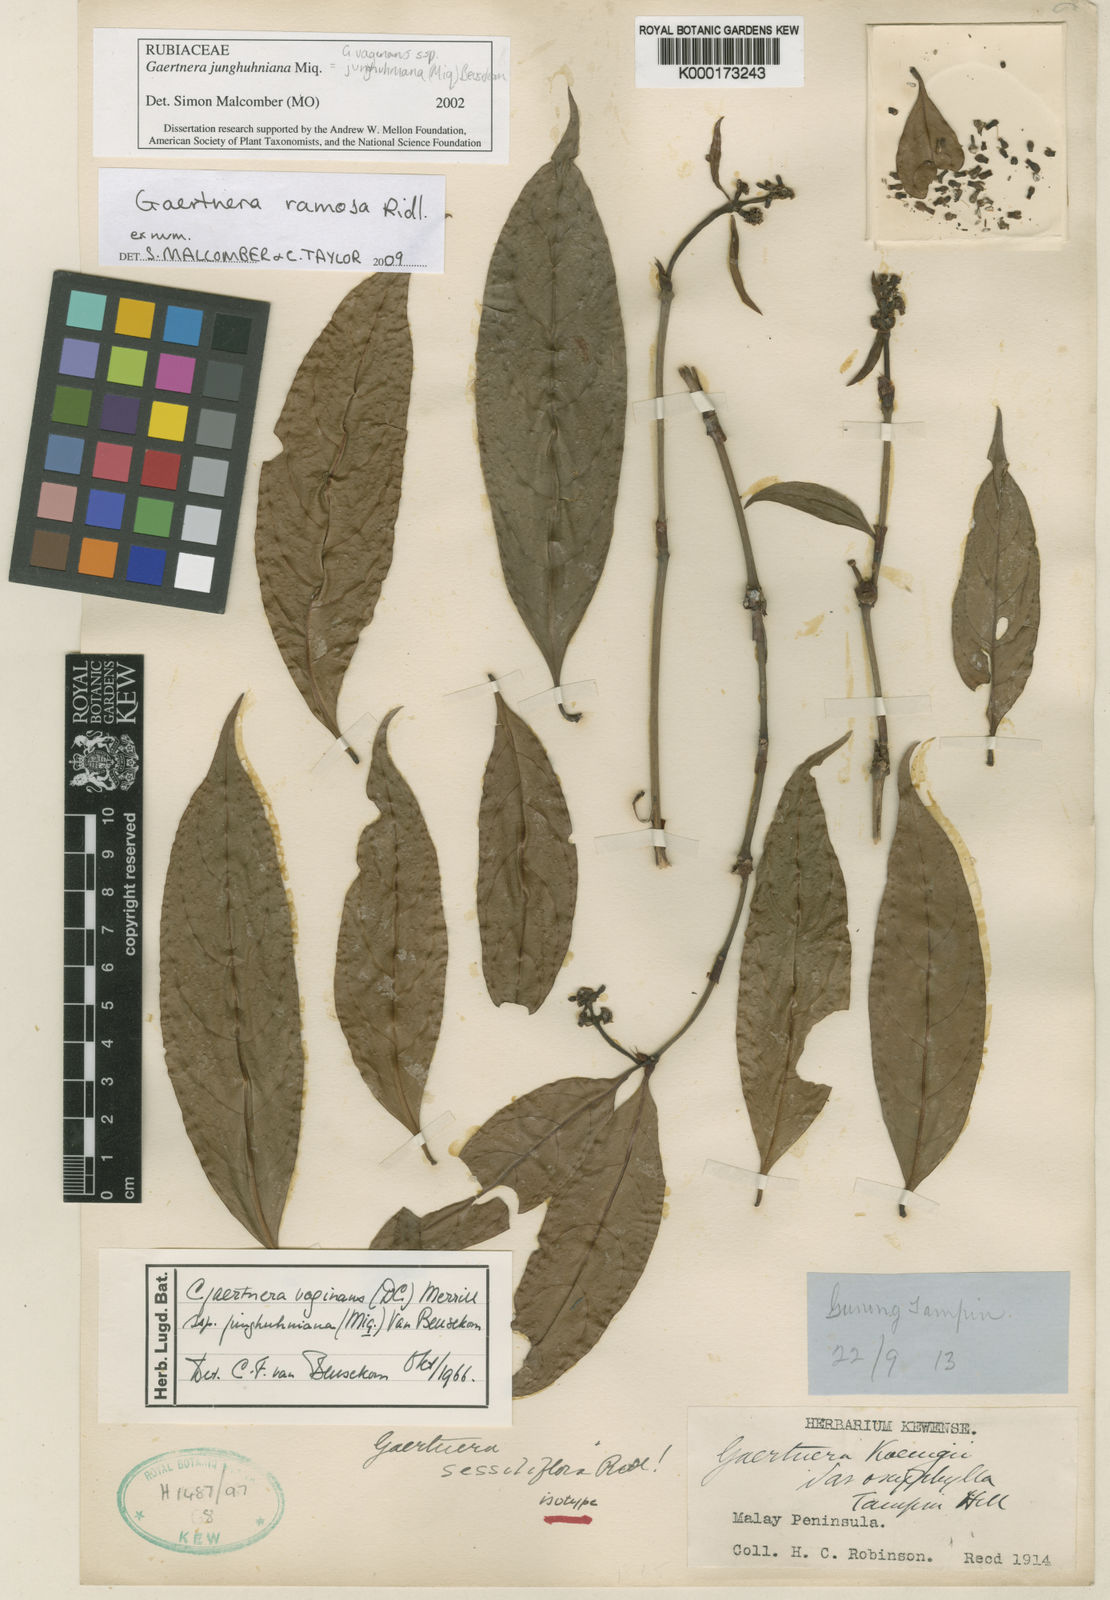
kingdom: Plantae
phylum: Tracheophyta
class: Magnoliopsida
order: Gentianales
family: Rubiaceae
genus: Gaertnera
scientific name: Gaertnera junghuhniana
